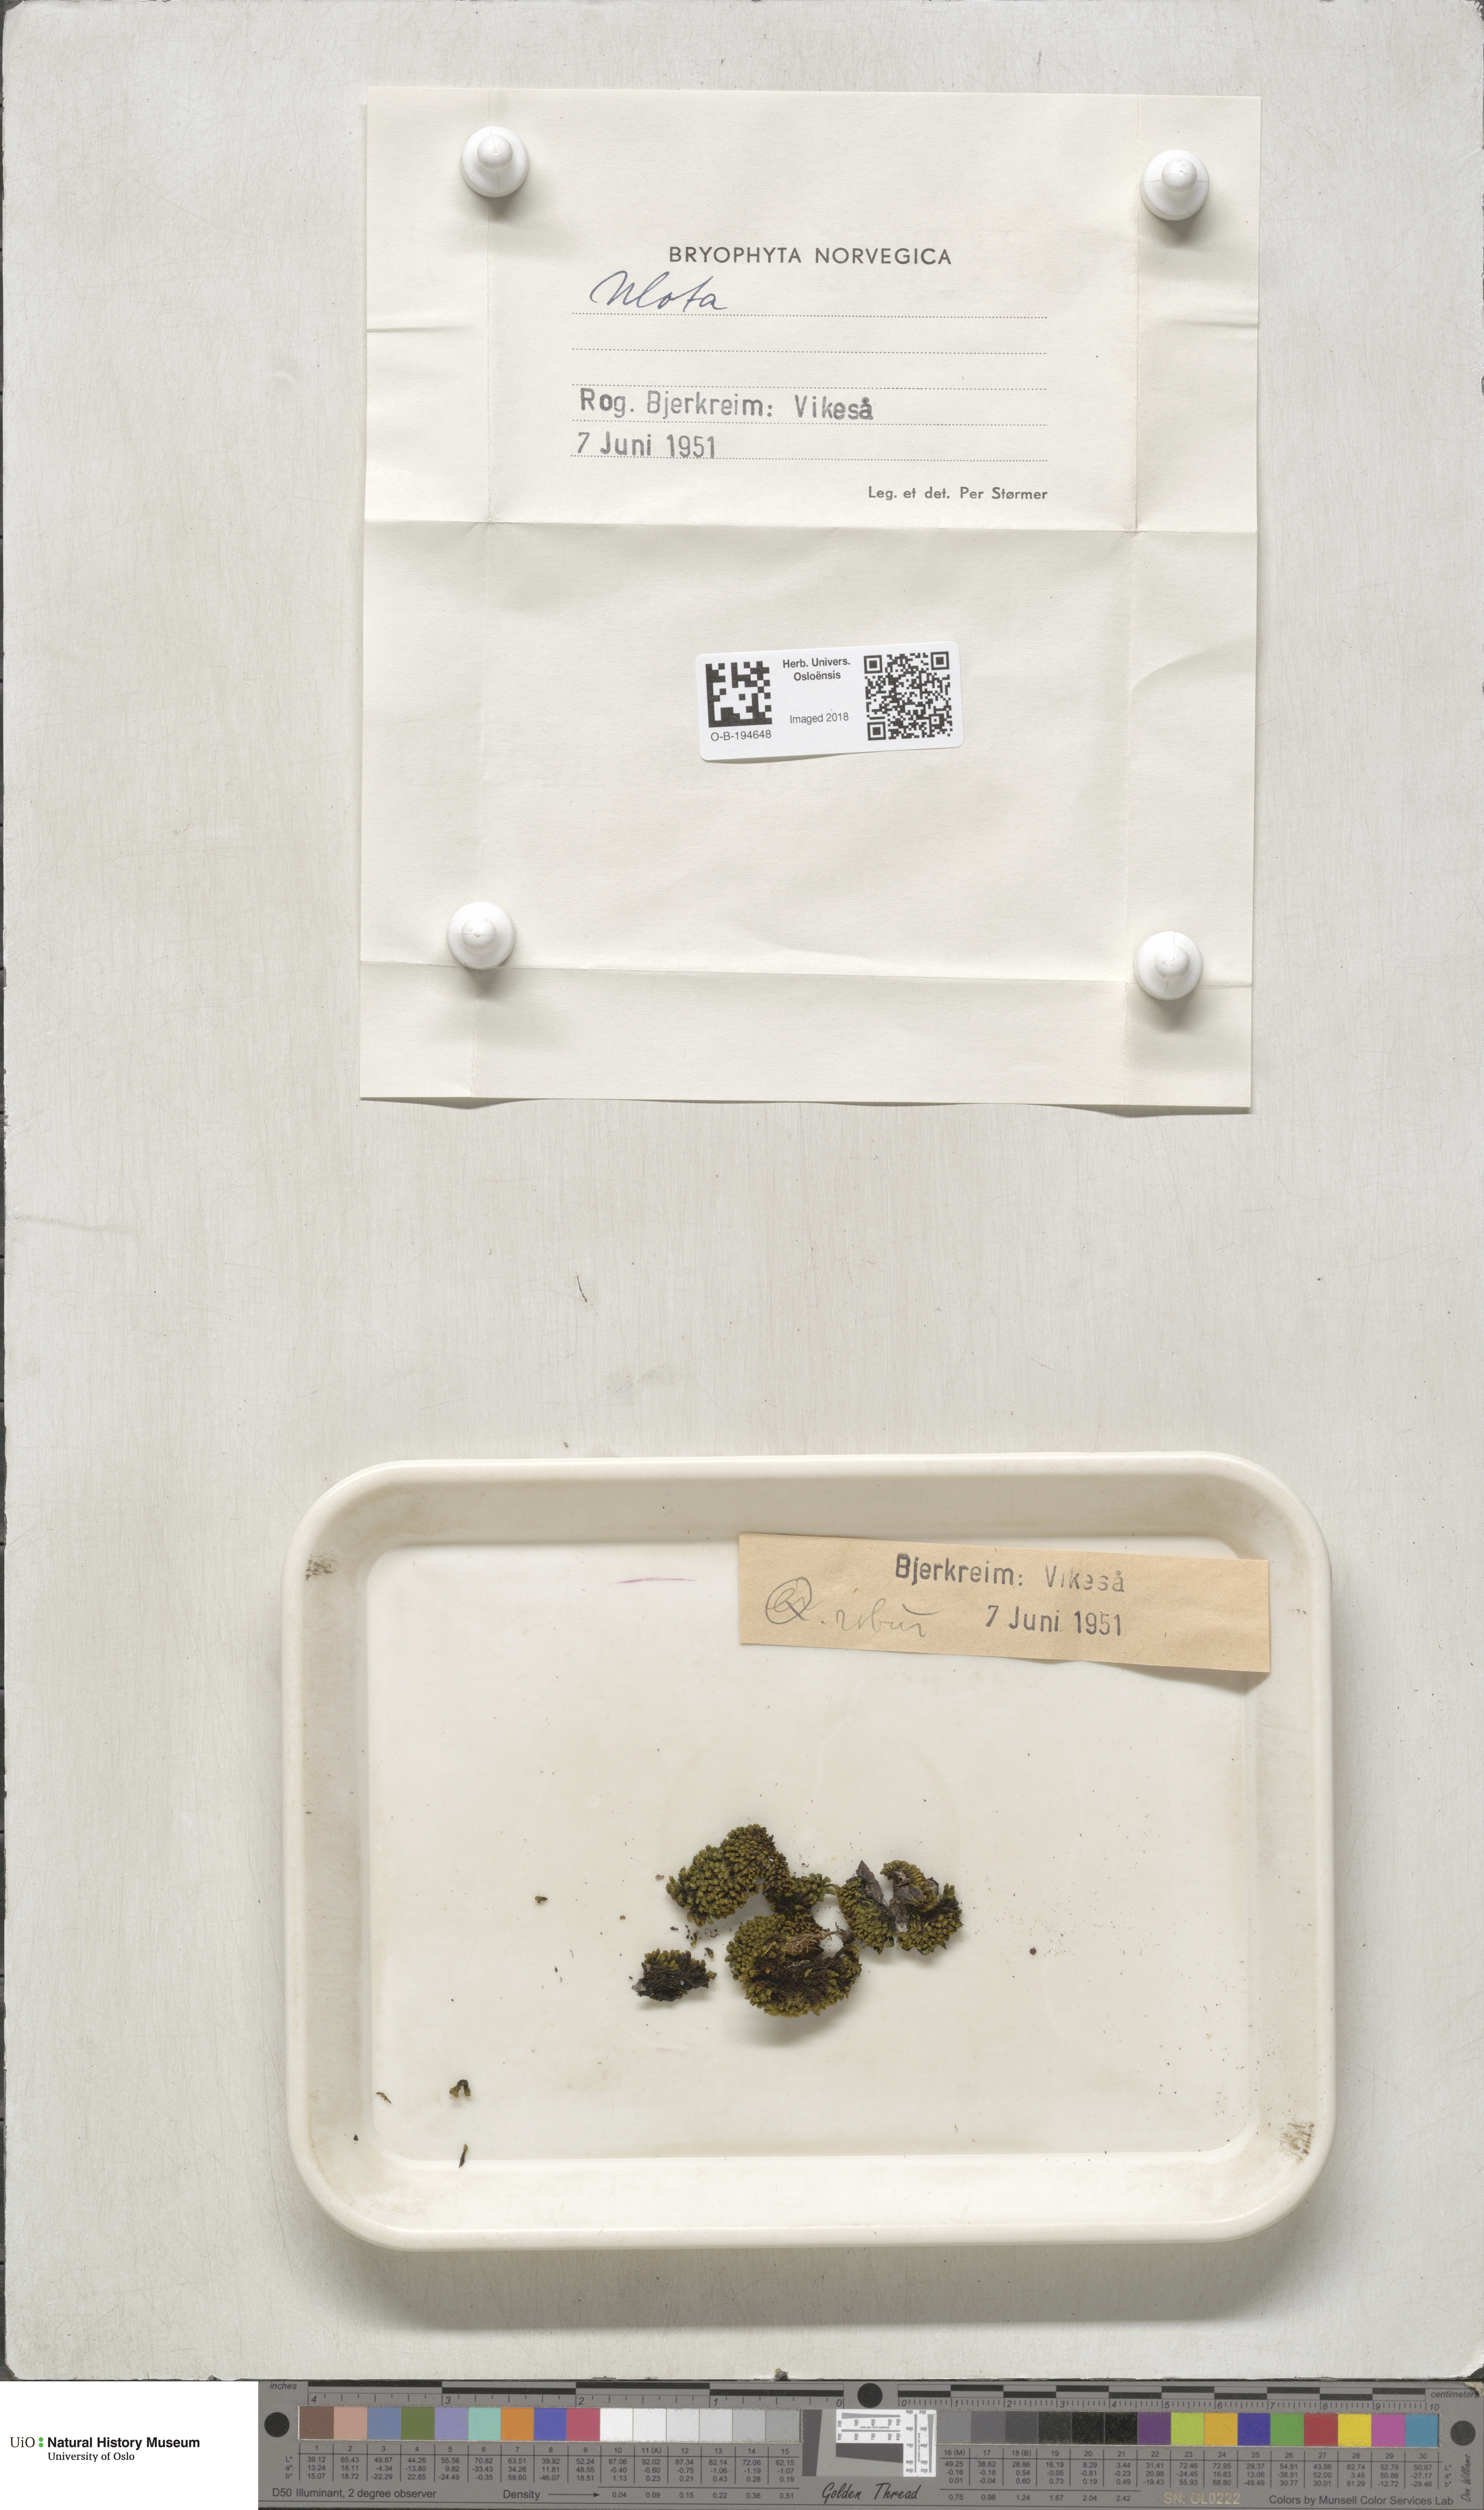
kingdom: Plantae
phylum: Bryophyta
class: Bryopsida
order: Orthotrichales
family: Orthotrichaceae
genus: Ulota
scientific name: Ulota
